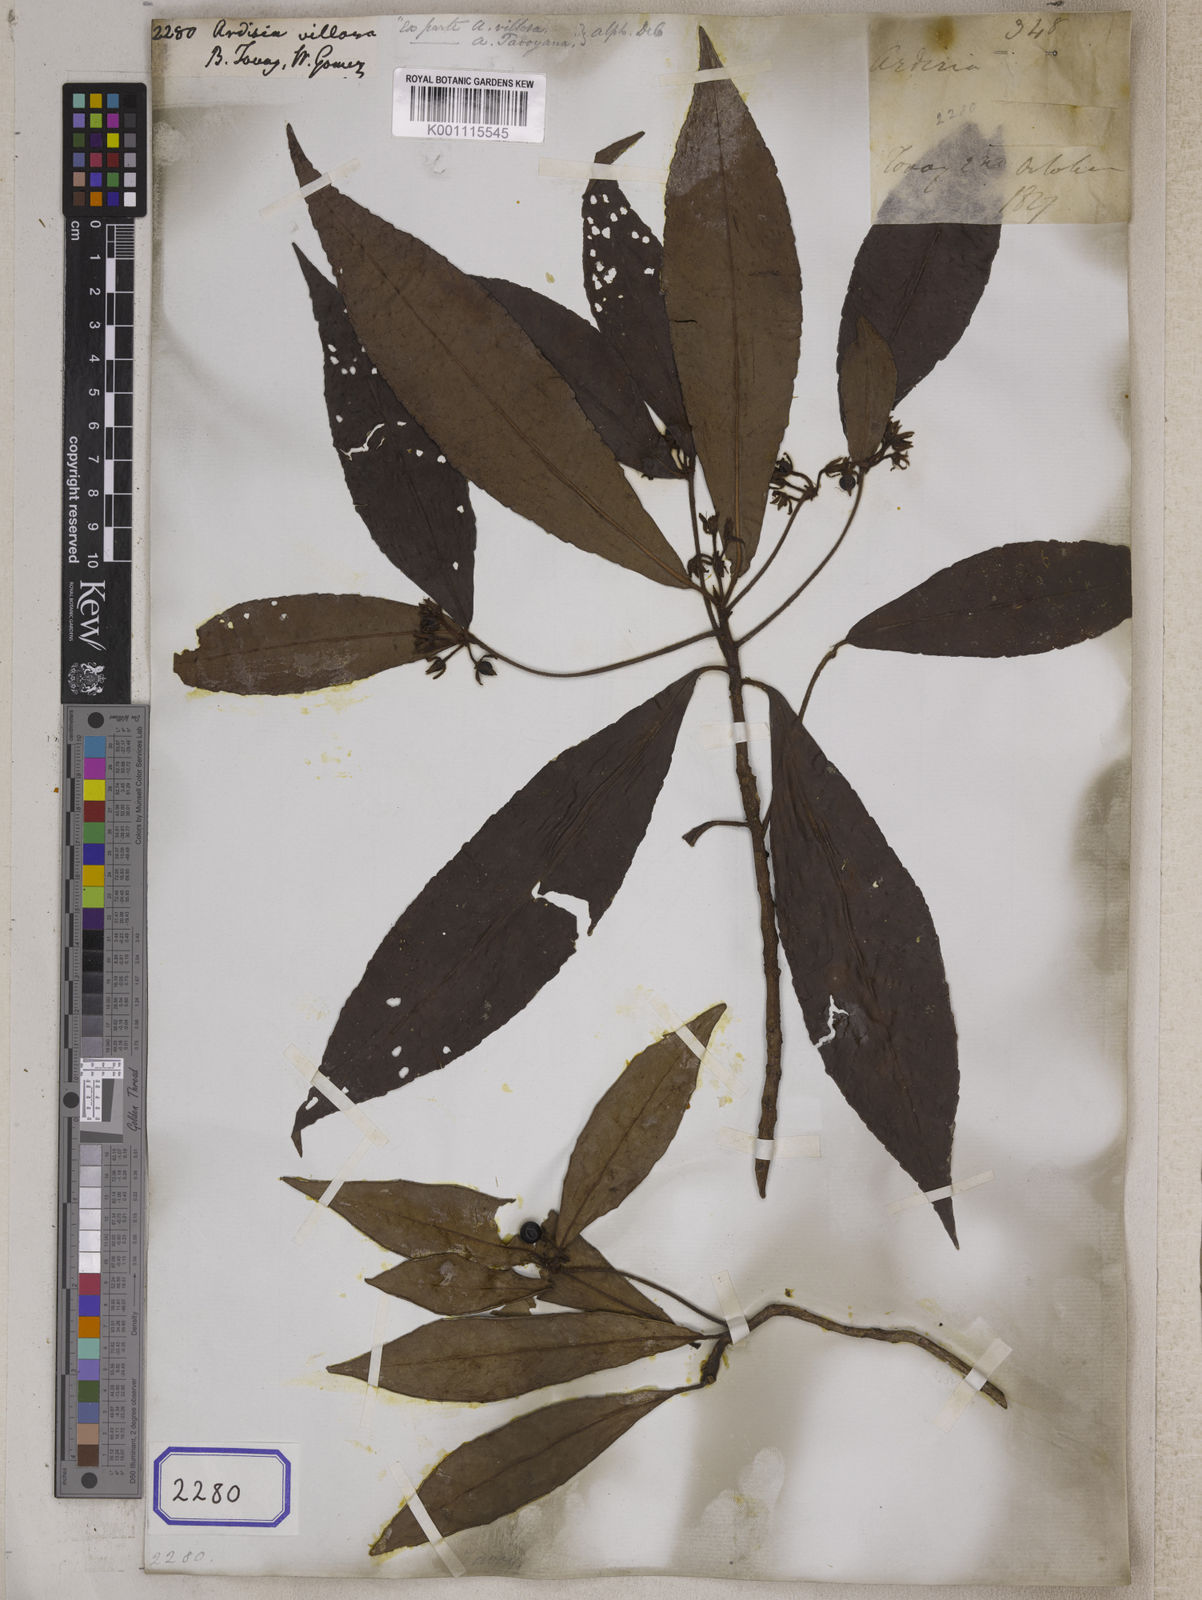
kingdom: Plantae
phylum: Tracheophyta
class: Magnoliopsida
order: Ericales
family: Primulaceae
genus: Ardisia
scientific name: Ardisia villosa
